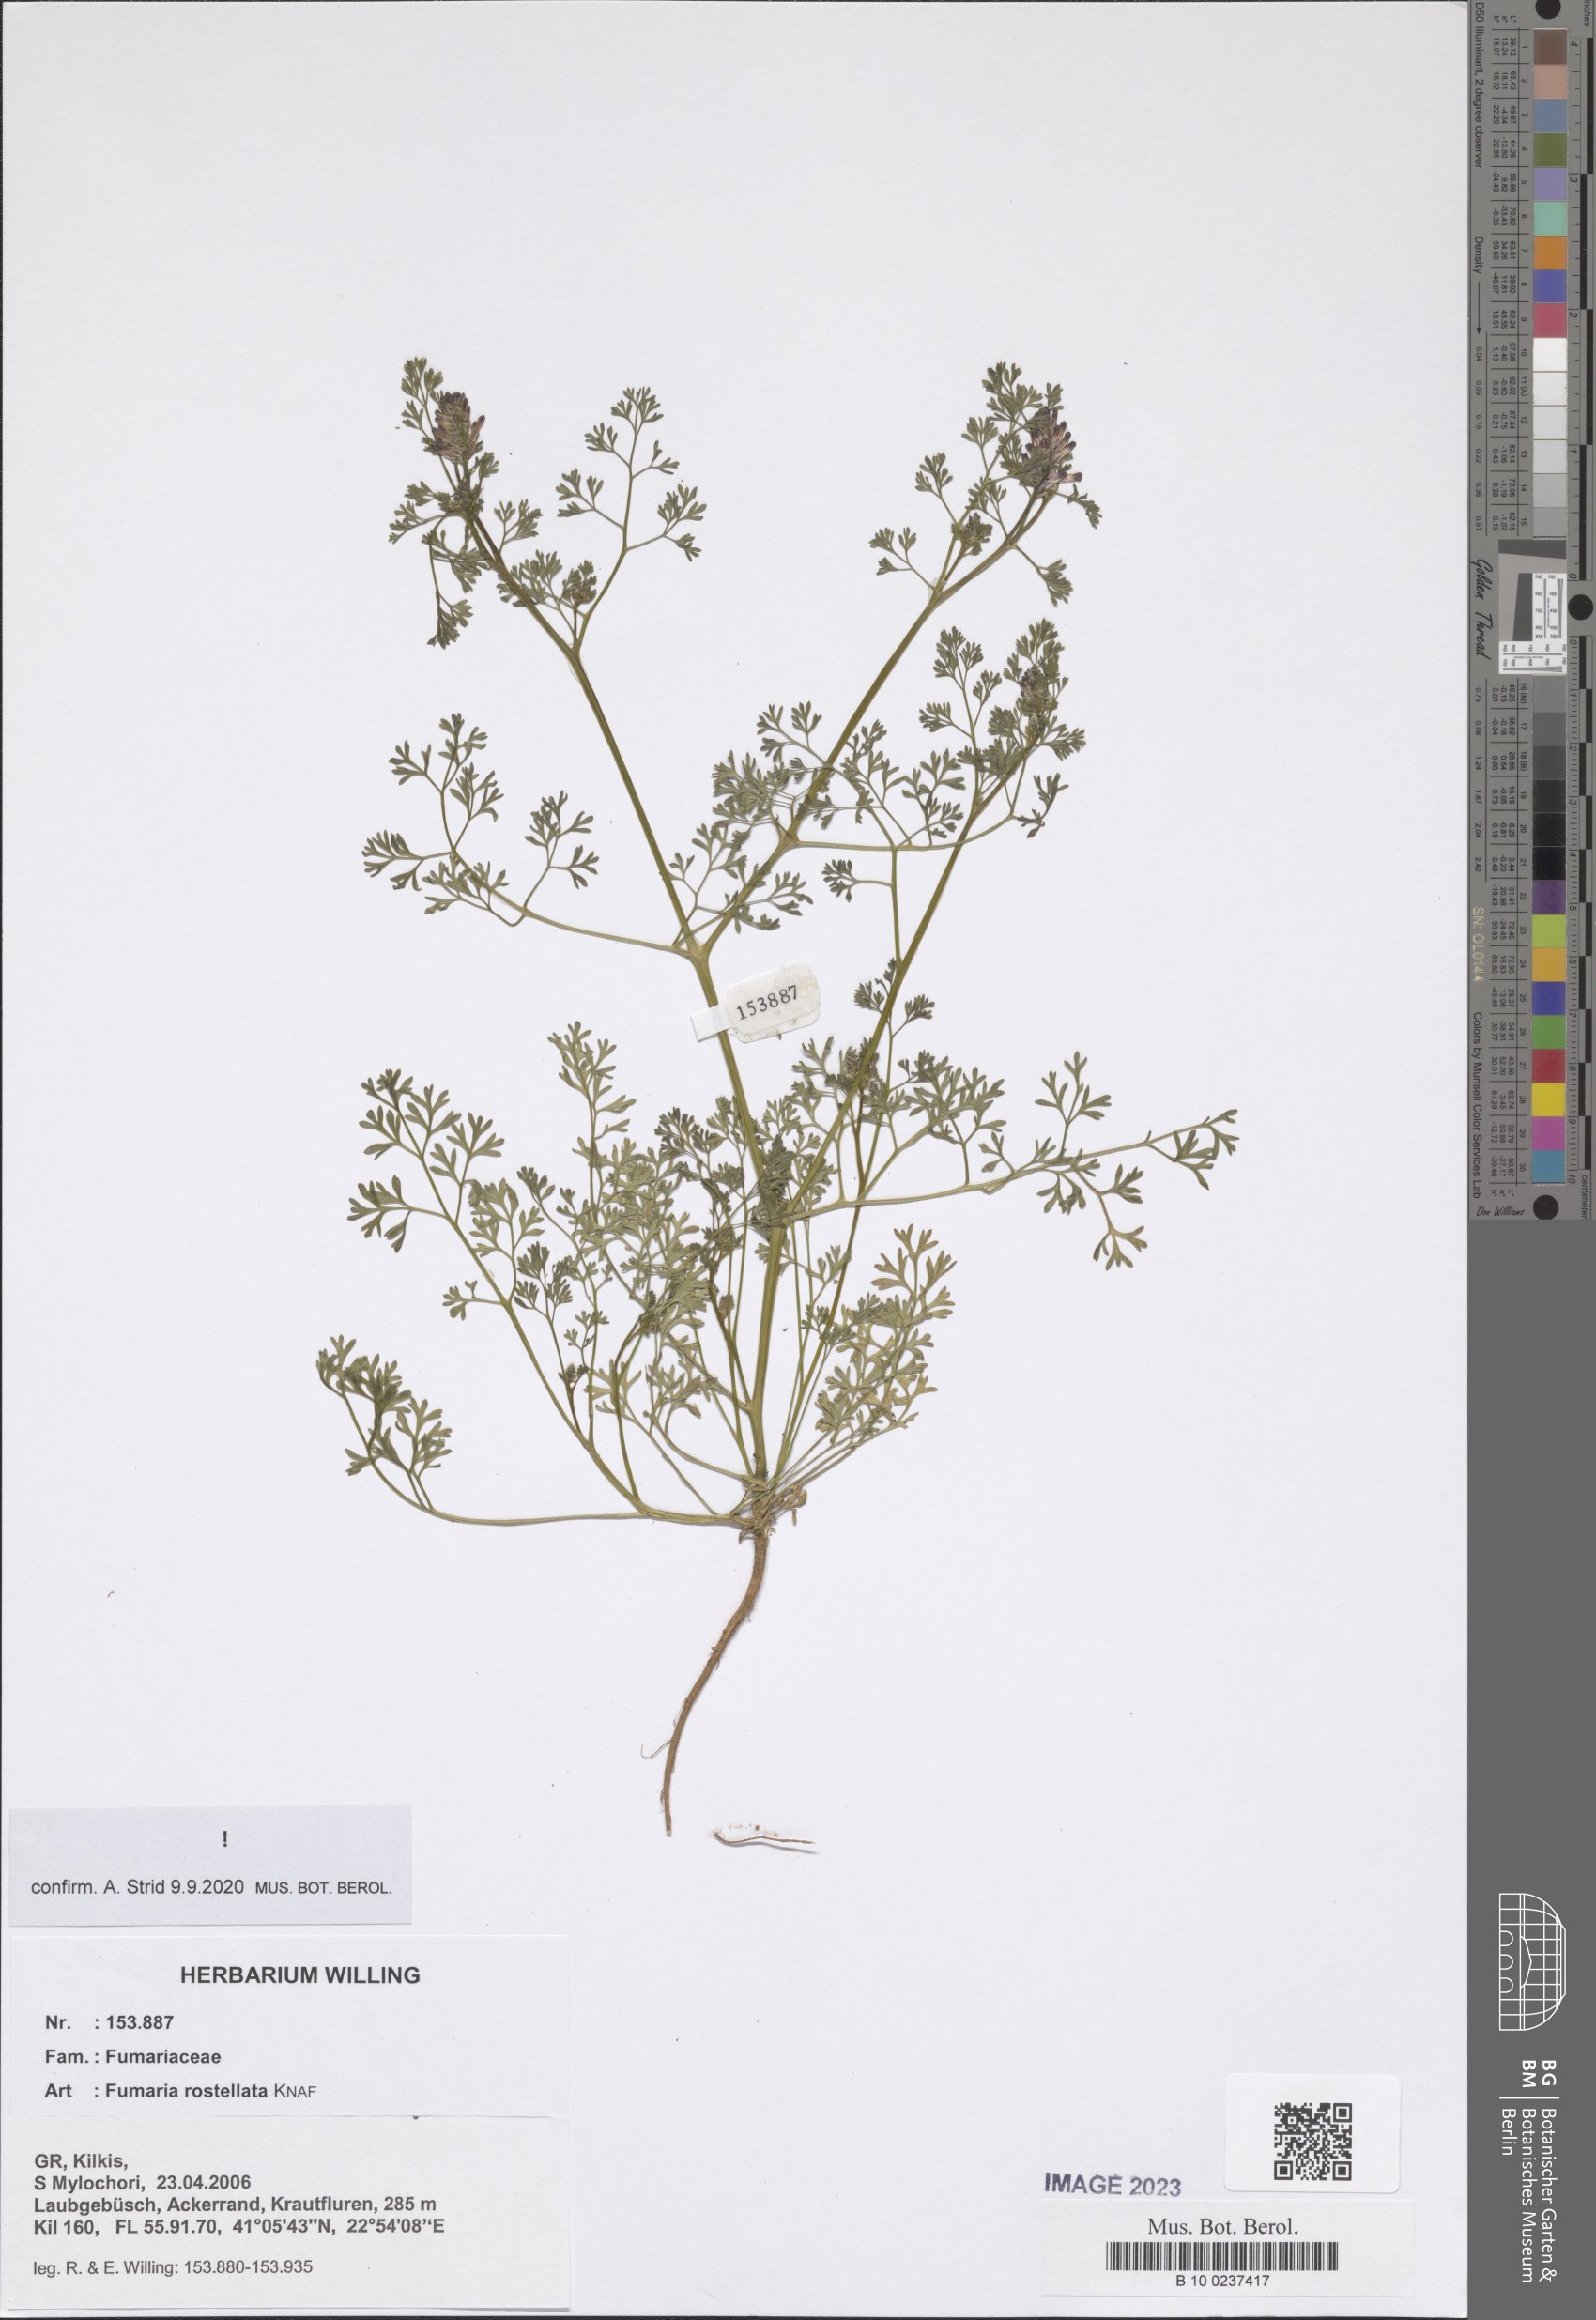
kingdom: Plantae
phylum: Tracheophyta
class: Magnoliopsida
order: Ranunculales
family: Papaveraceae
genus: Fumaria
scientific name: Fumaria rostellata
